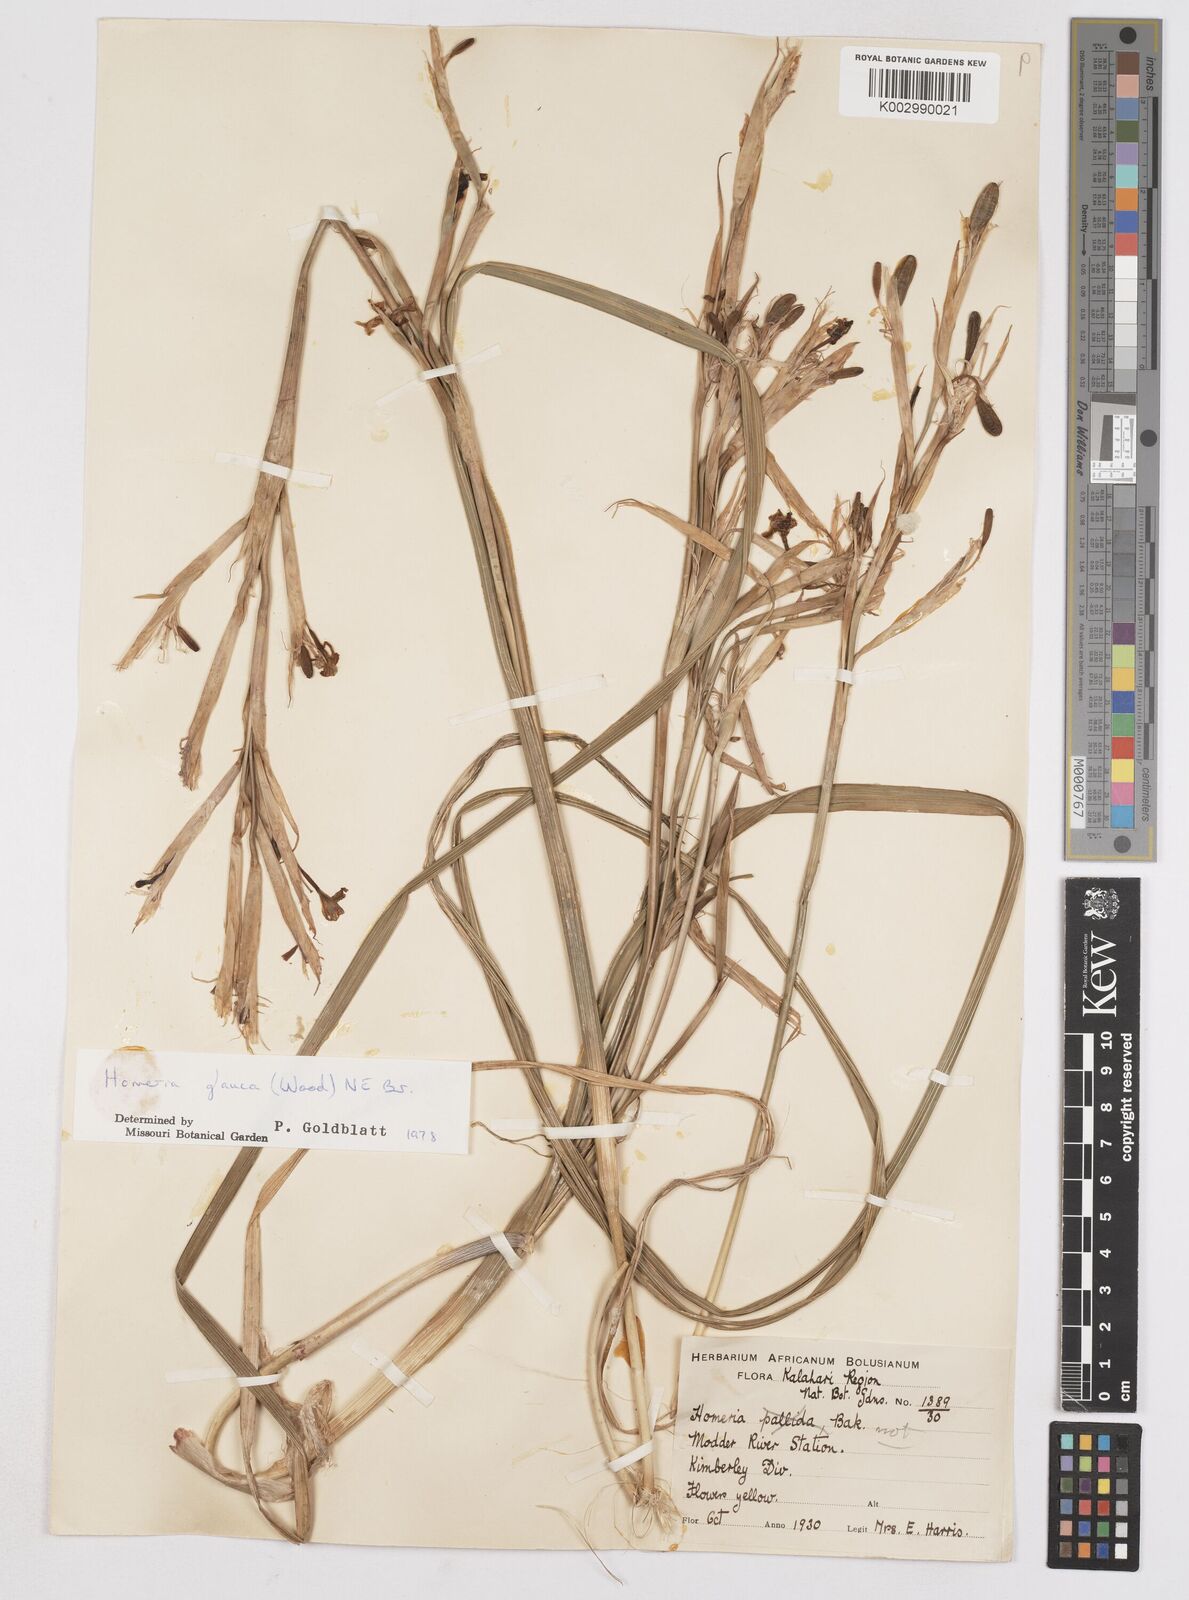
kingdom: Plantae
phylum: Tracheophyta
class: Liliopsida
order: Asparagales
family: Iridaceae
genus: Moraea
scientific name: Moraea pallida
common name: Yellow tulp
